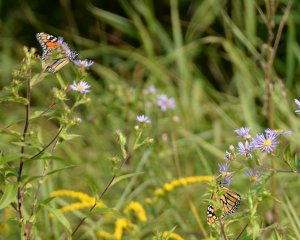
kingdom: Animalia
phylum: Arthropoda
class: Insecta
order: Lepidoptera
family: Nymphalidae
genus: Danaus
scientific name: Danaus plexippus
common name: Monarch
